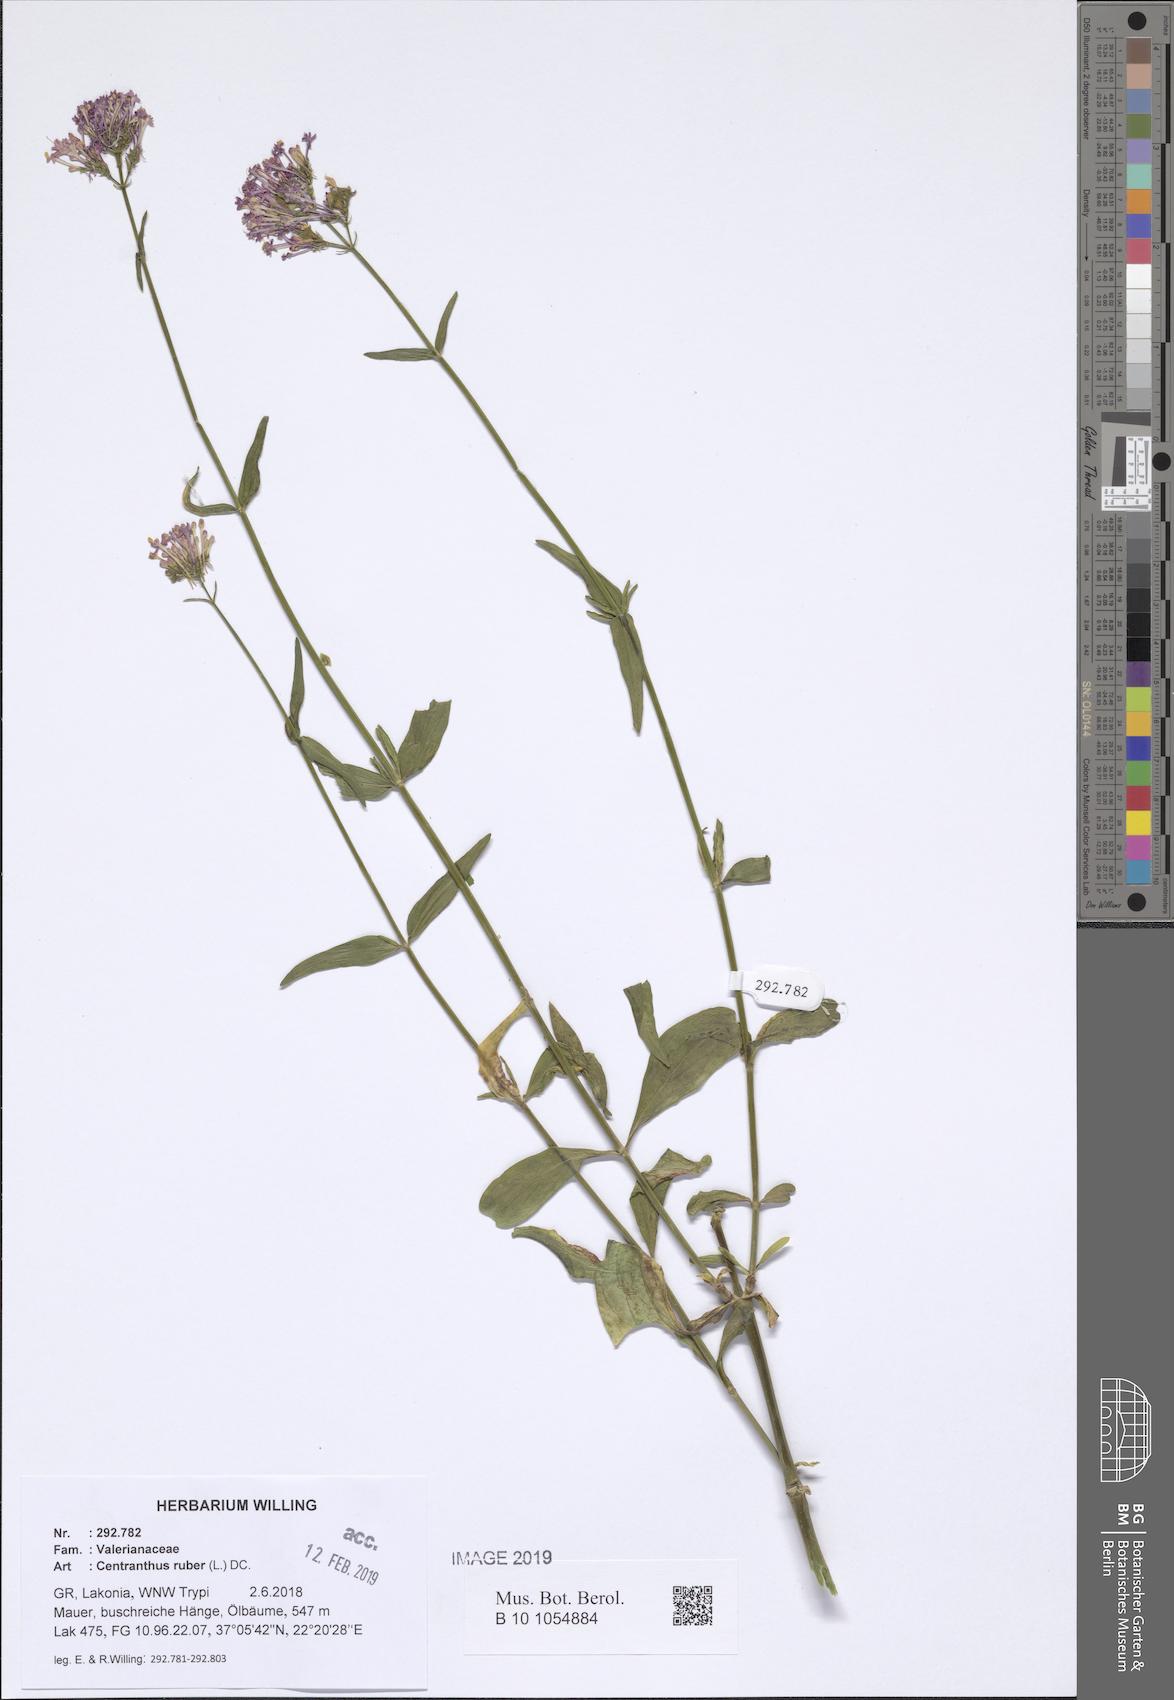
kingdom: Plantae
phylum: Tracheophyta
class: Magnoliopsida
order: Dipsacales
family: Caprifoliaceae
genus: Centranthus
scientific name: Centranthus ruber
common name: Red valerian
